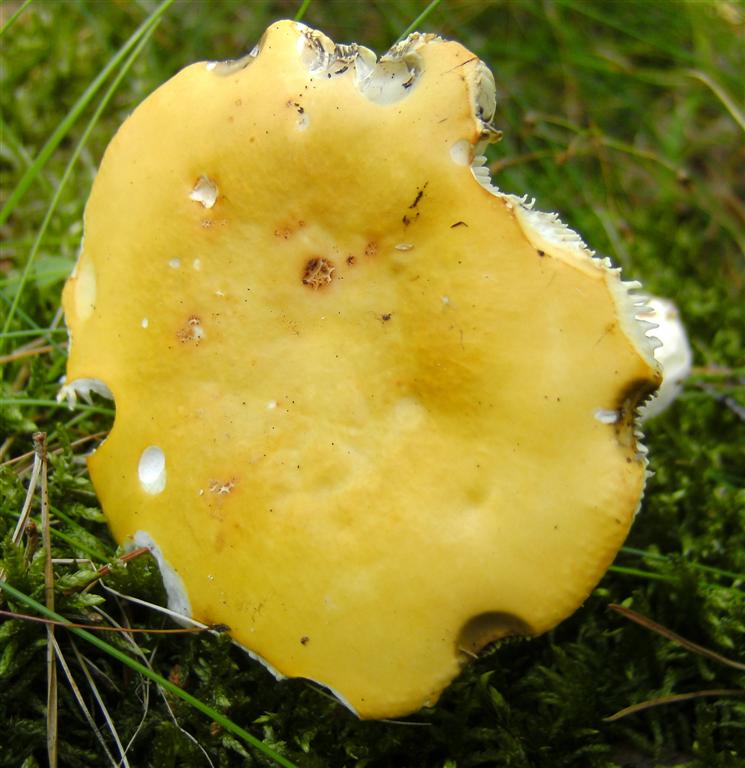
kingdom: Fungi
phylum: Basidiomycota
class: Agaricomycetes
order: Russulales
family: Russulaceae
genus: Russula
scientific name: Russula claroflava
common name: birke-skørhat
